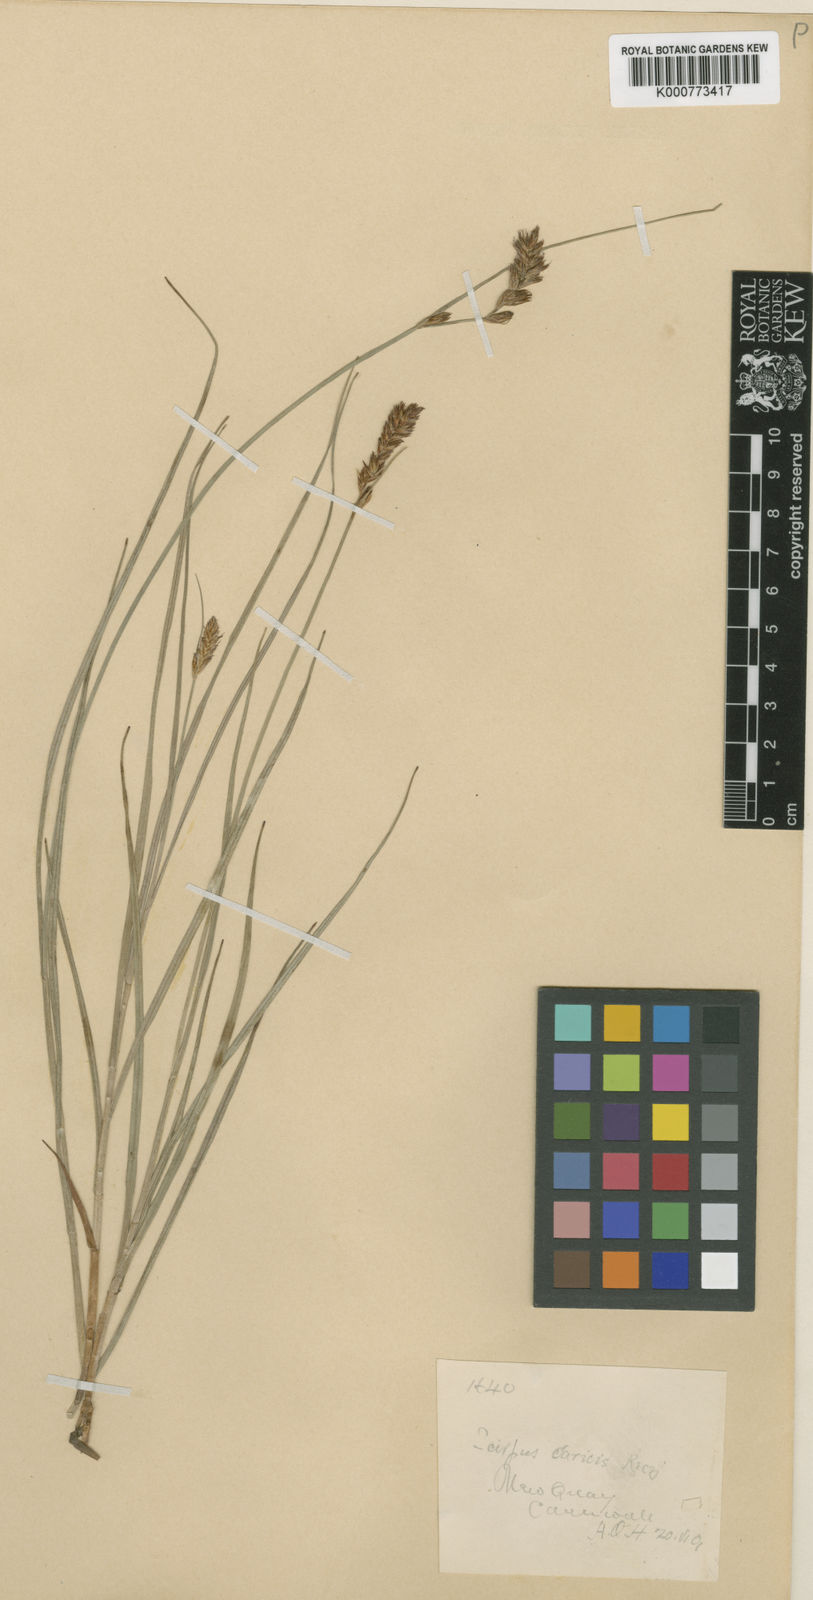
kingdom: Plantae
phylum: Tracheophyta
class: Liliopsida
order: Poales
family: Cyperaceae
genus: Blysmus
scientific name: Blysmus compressus
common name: Flat-sedge
